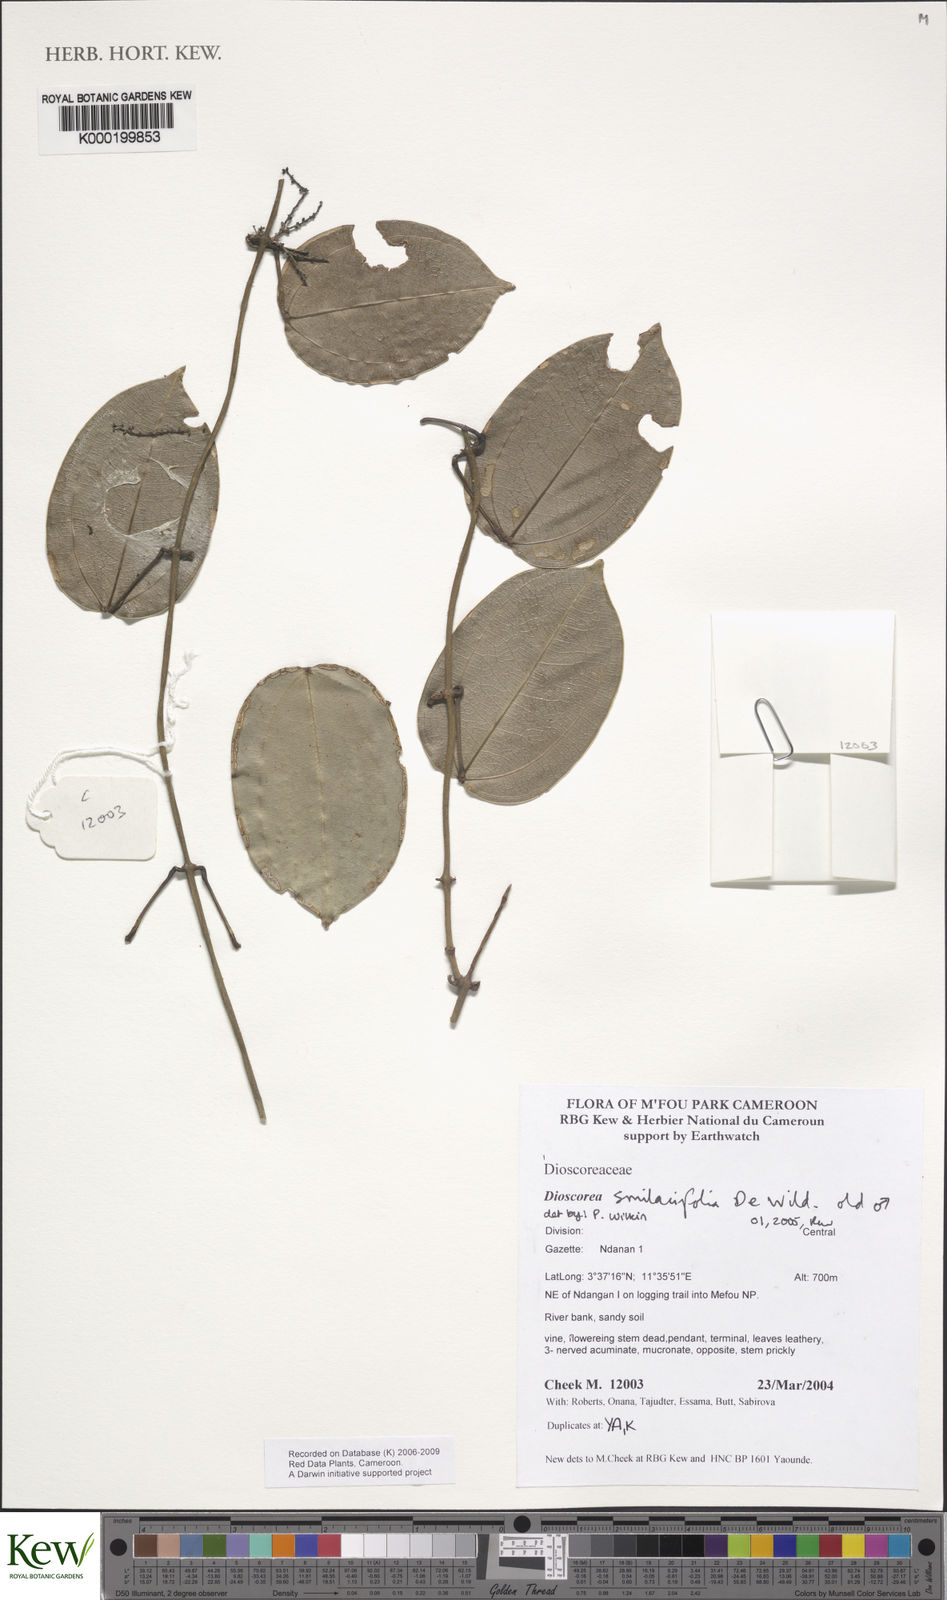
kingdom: Plantae
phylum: Tracheophyta
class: Liliopsida
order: Dioscoreales
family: Dioscoreaceae
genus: Dioscorea
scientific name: Dioscorea smilacifolia
